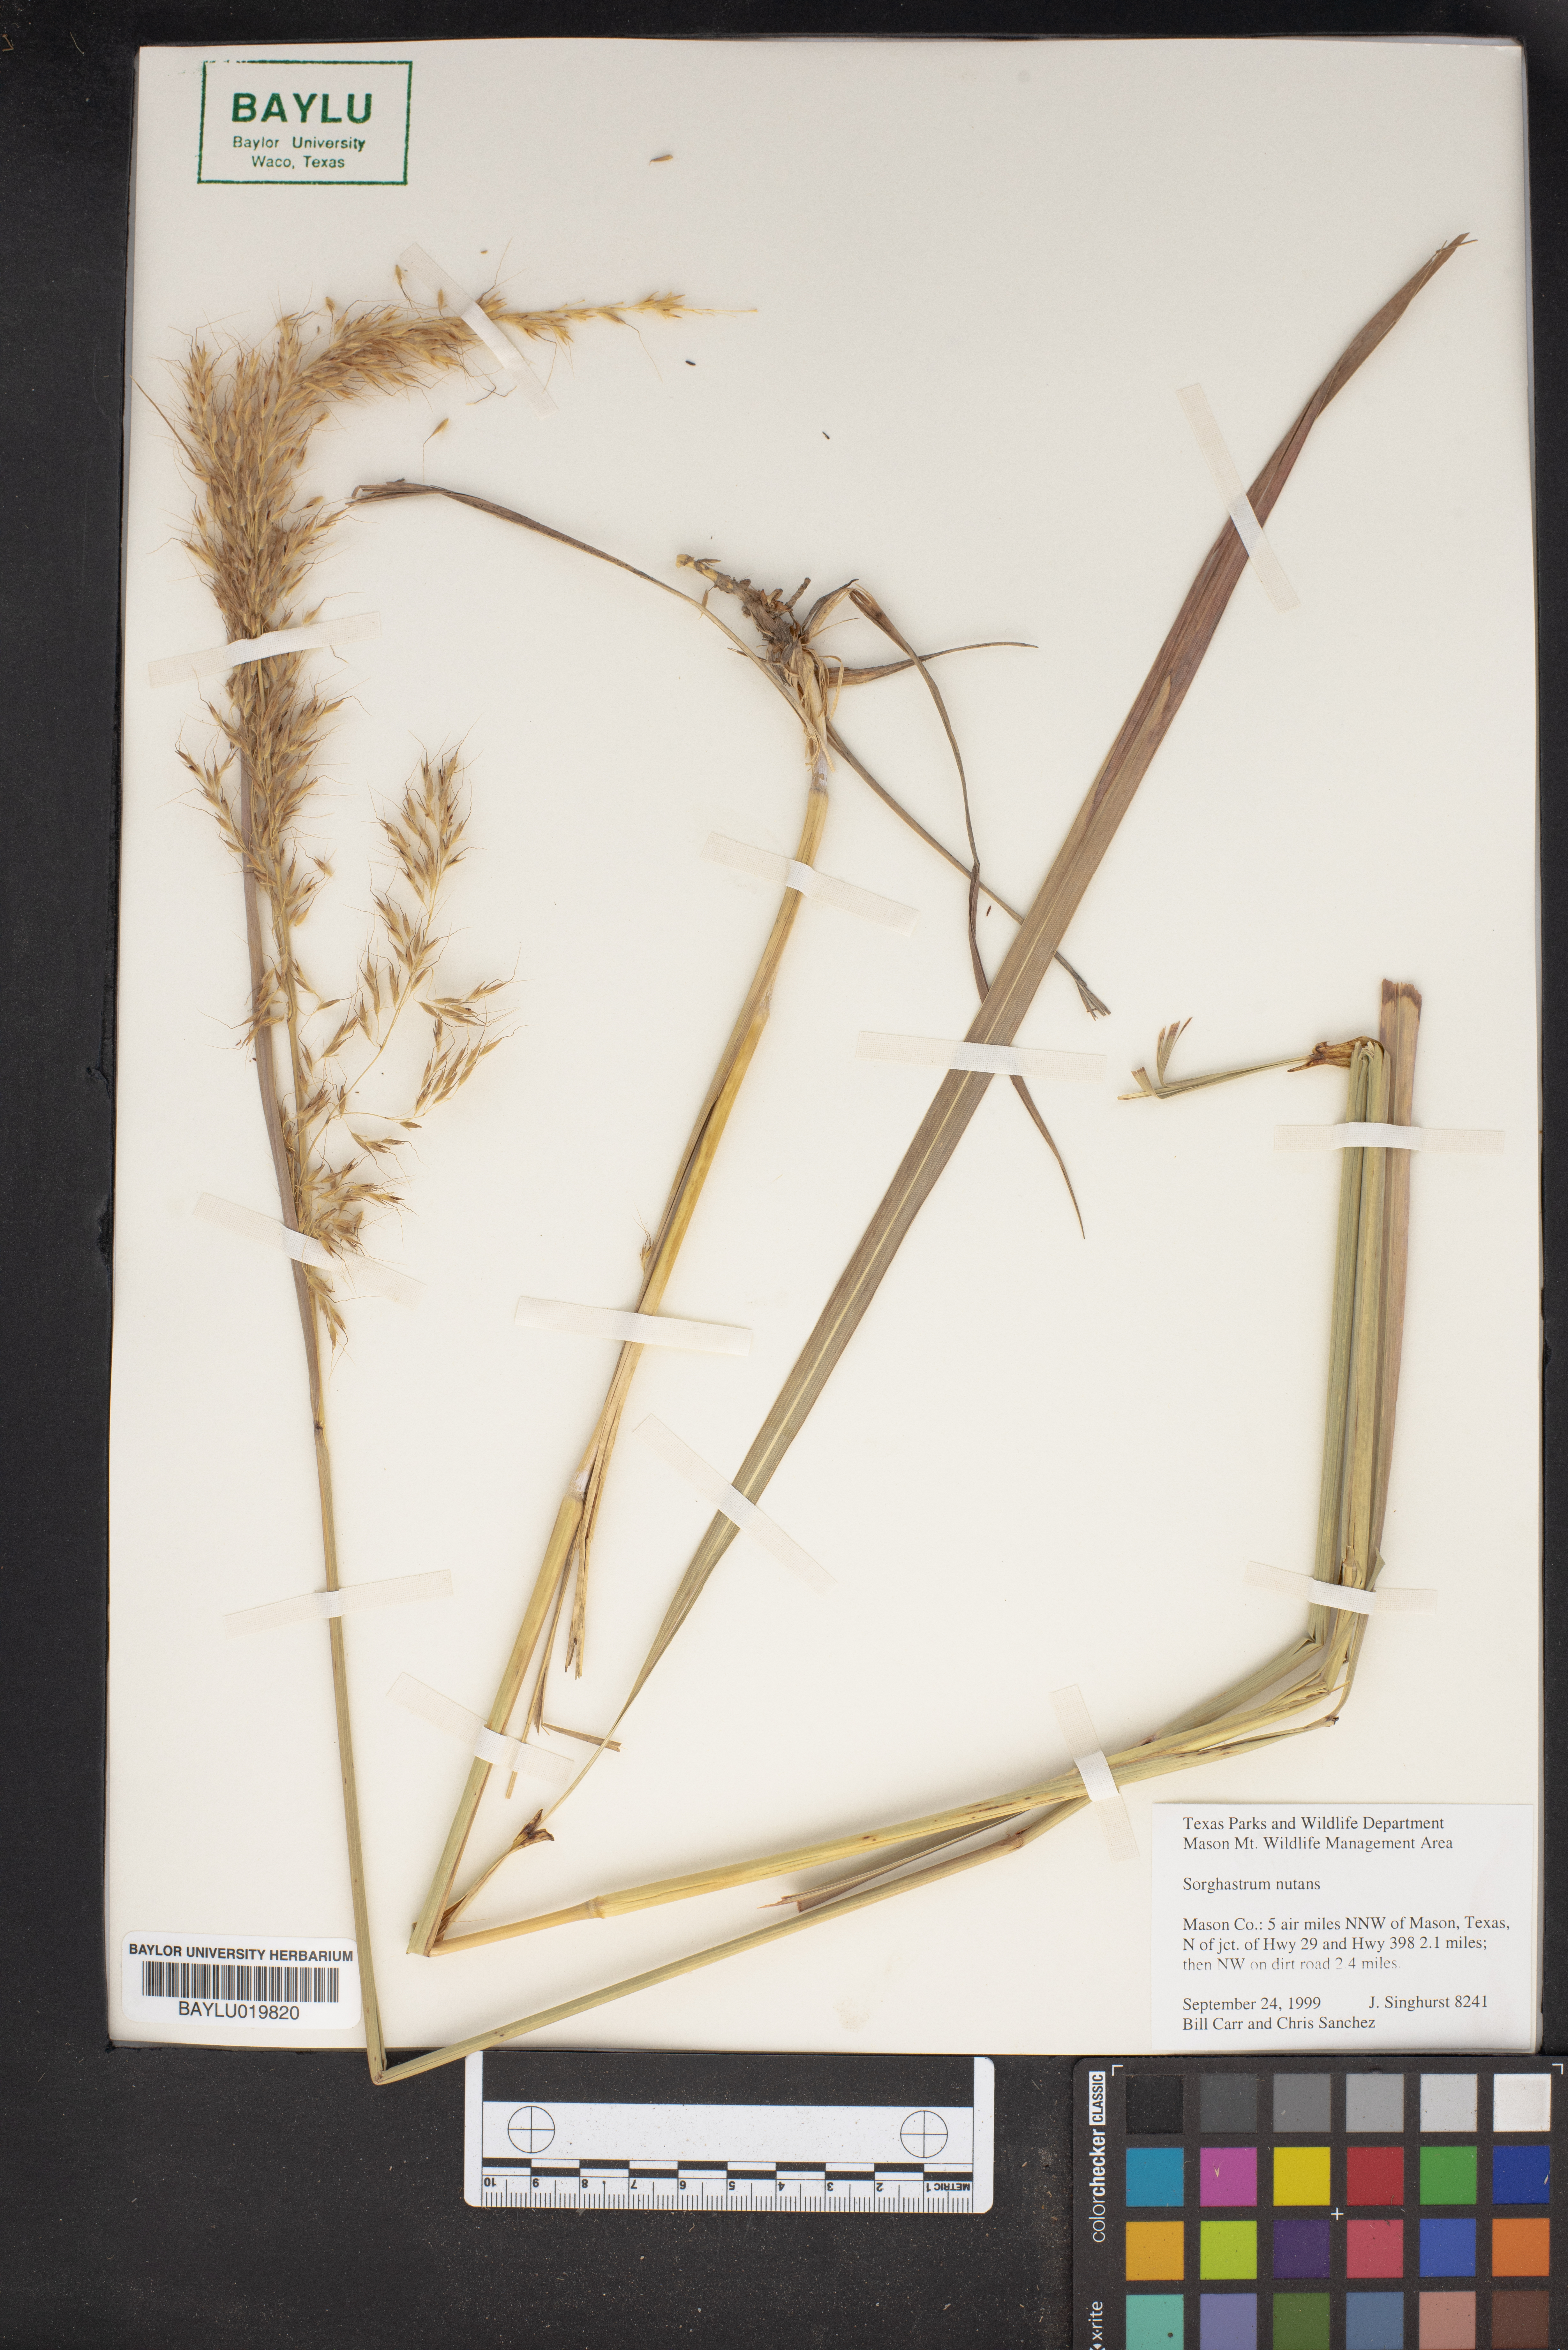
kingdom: Plantae
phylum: Tracheophyta
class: Liliopsida
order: Poales
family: Poaceae
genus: Sorghastrum
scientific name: Sorghastrum nutans
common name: Indian grass
